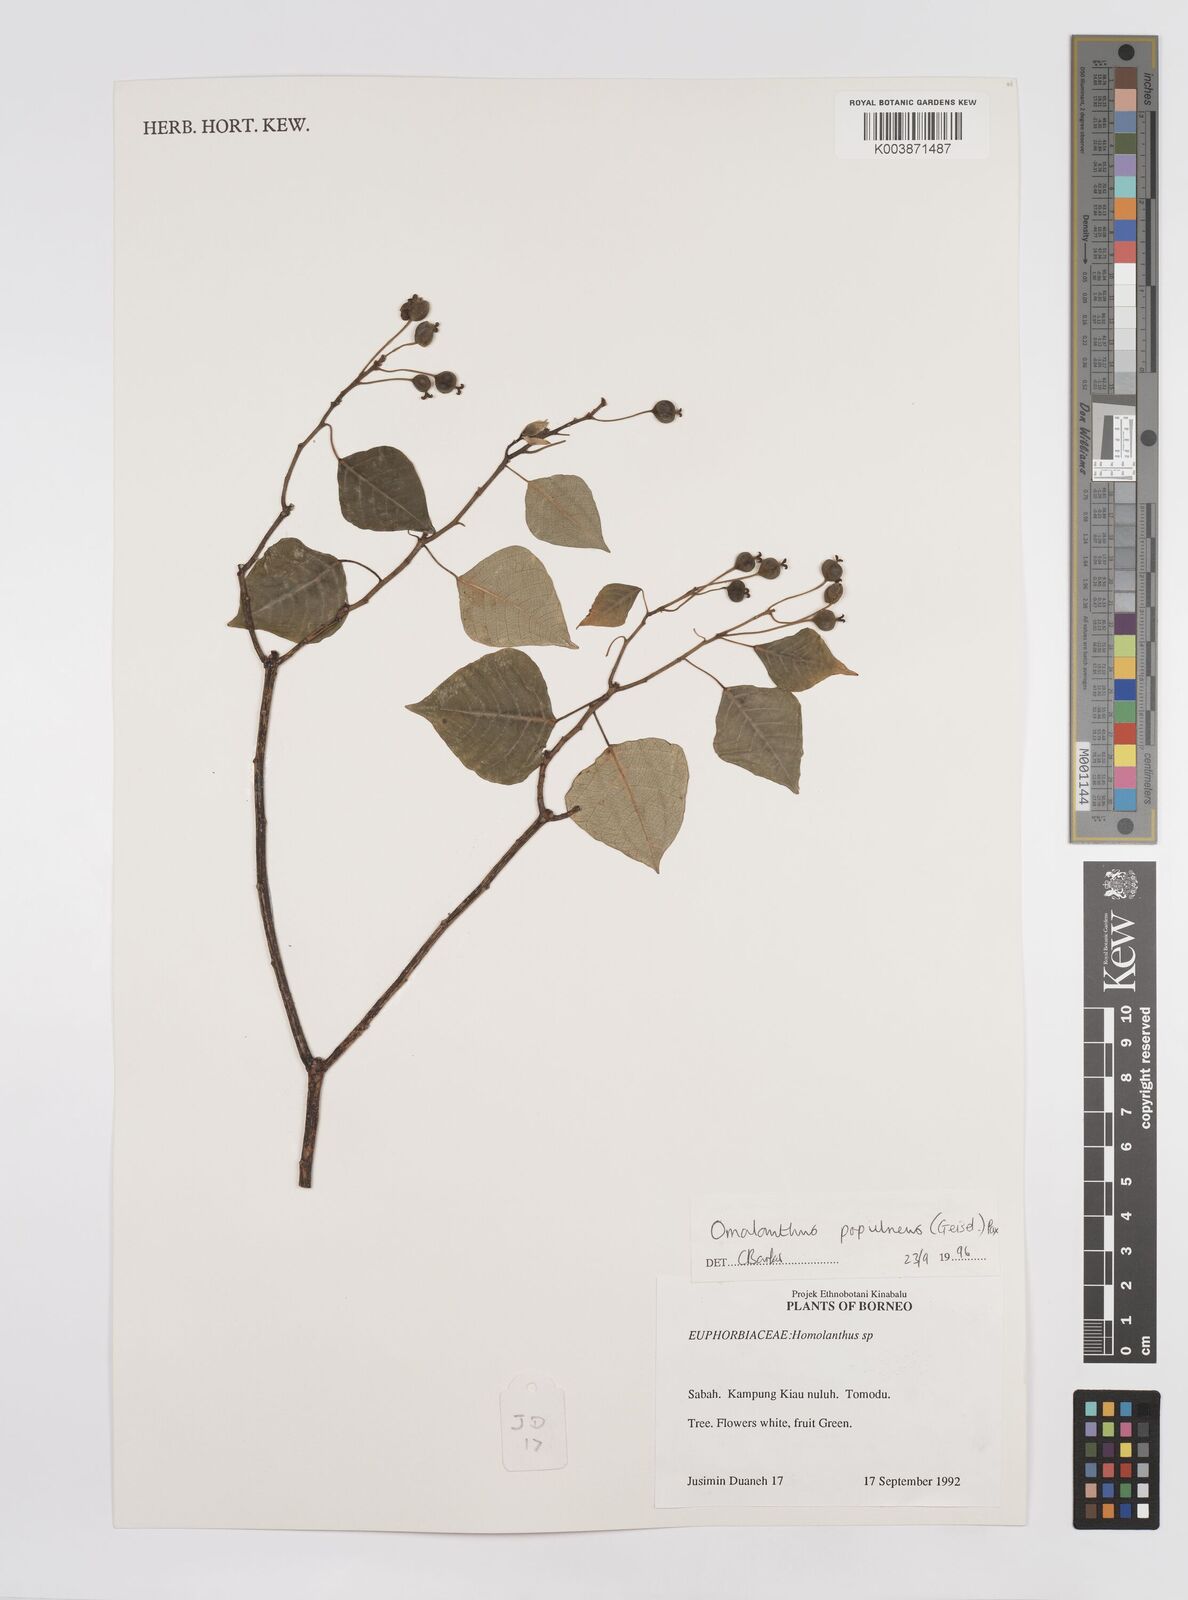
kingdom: Plantae
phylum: Tracheophyta
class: Magnoliopsida
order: Malpighiales
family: Euphorbiaceae
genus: Homalanthus
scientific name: Homalanthus populneus
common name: Spurge
